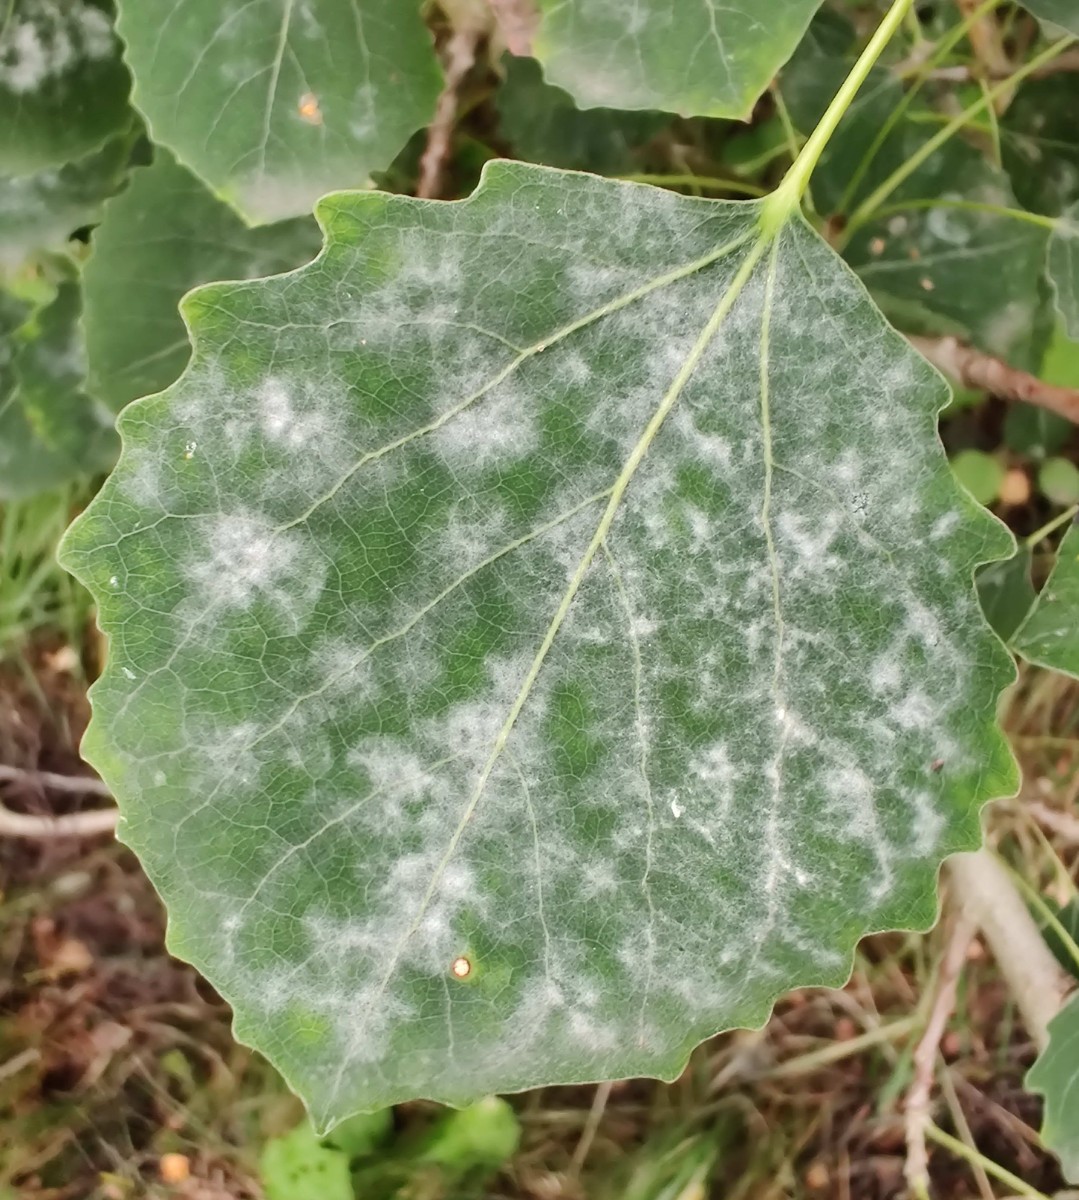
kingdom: Fungi
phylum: Ascomycota
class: Leotiomycetes
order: Helotiales
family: Erysiphaceae
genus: Erysiphe
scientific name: Erysiphe adunca
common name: pile-meldug
